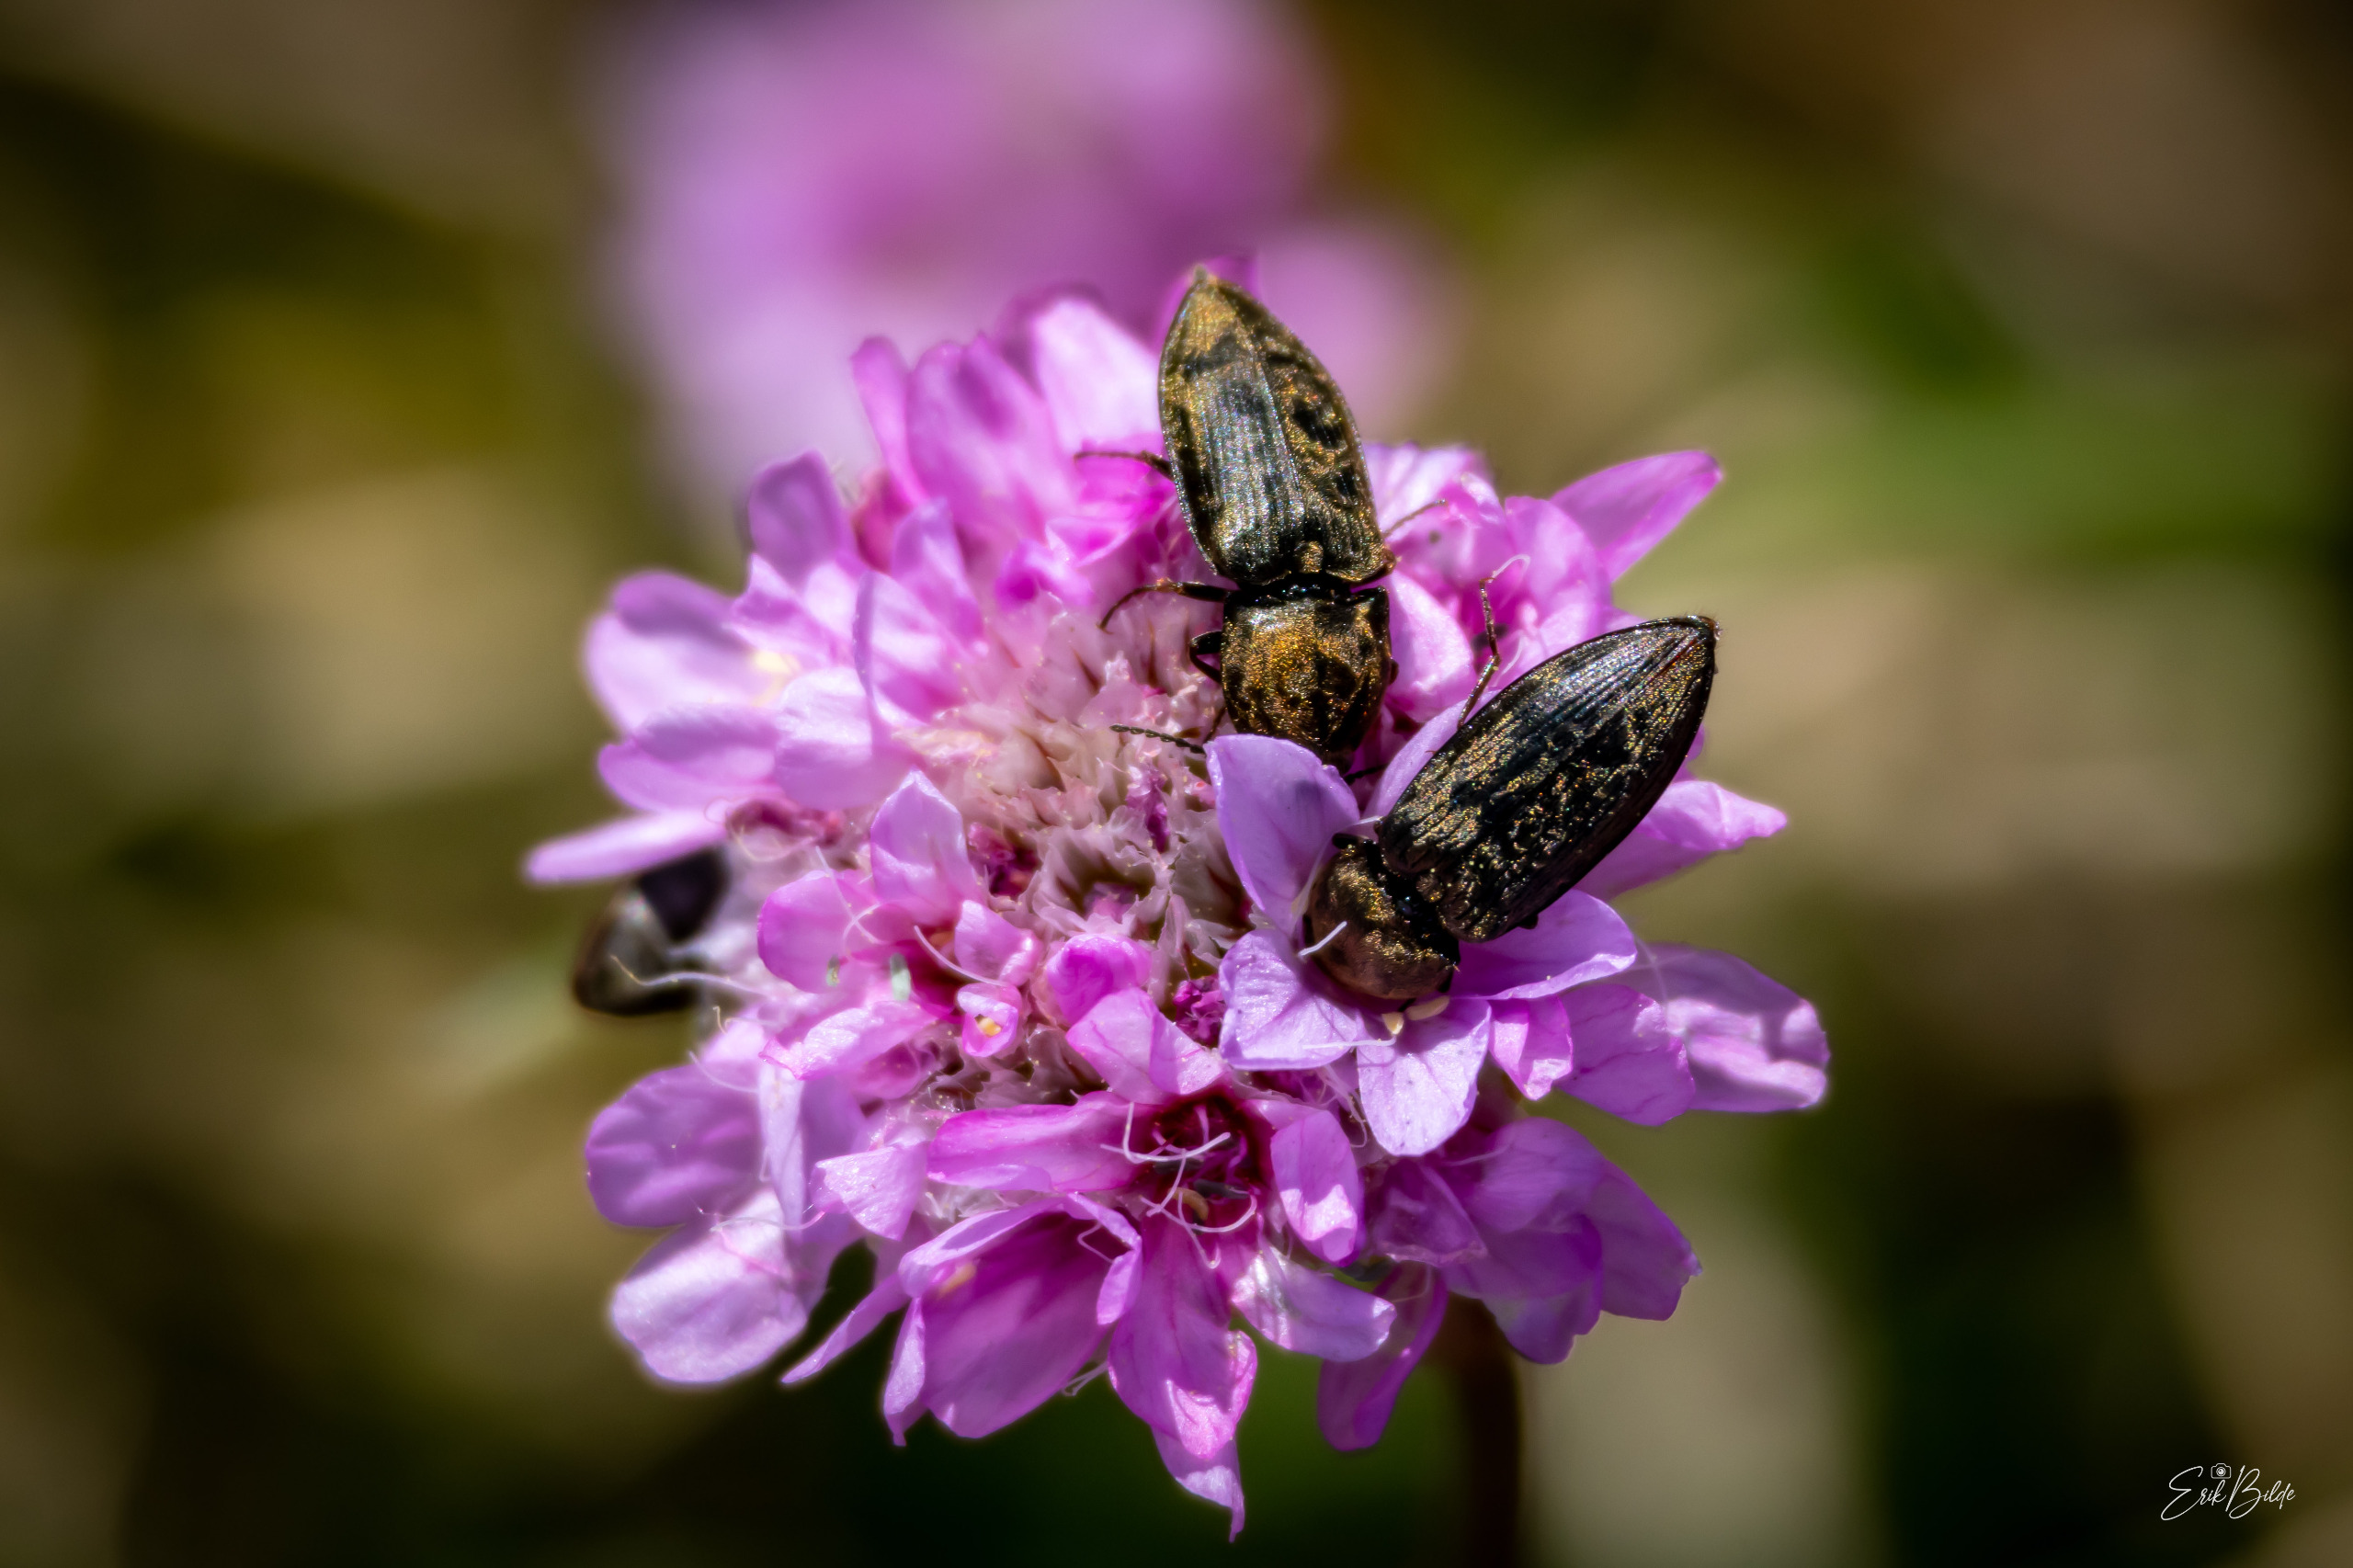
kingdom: Animalia
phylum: Arthropoda
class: Insecta
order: Coleoptera
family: Elateridae
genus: Prosternon
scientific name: Prosternon tessellatum
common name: Silkeglinsende jordsmælder
